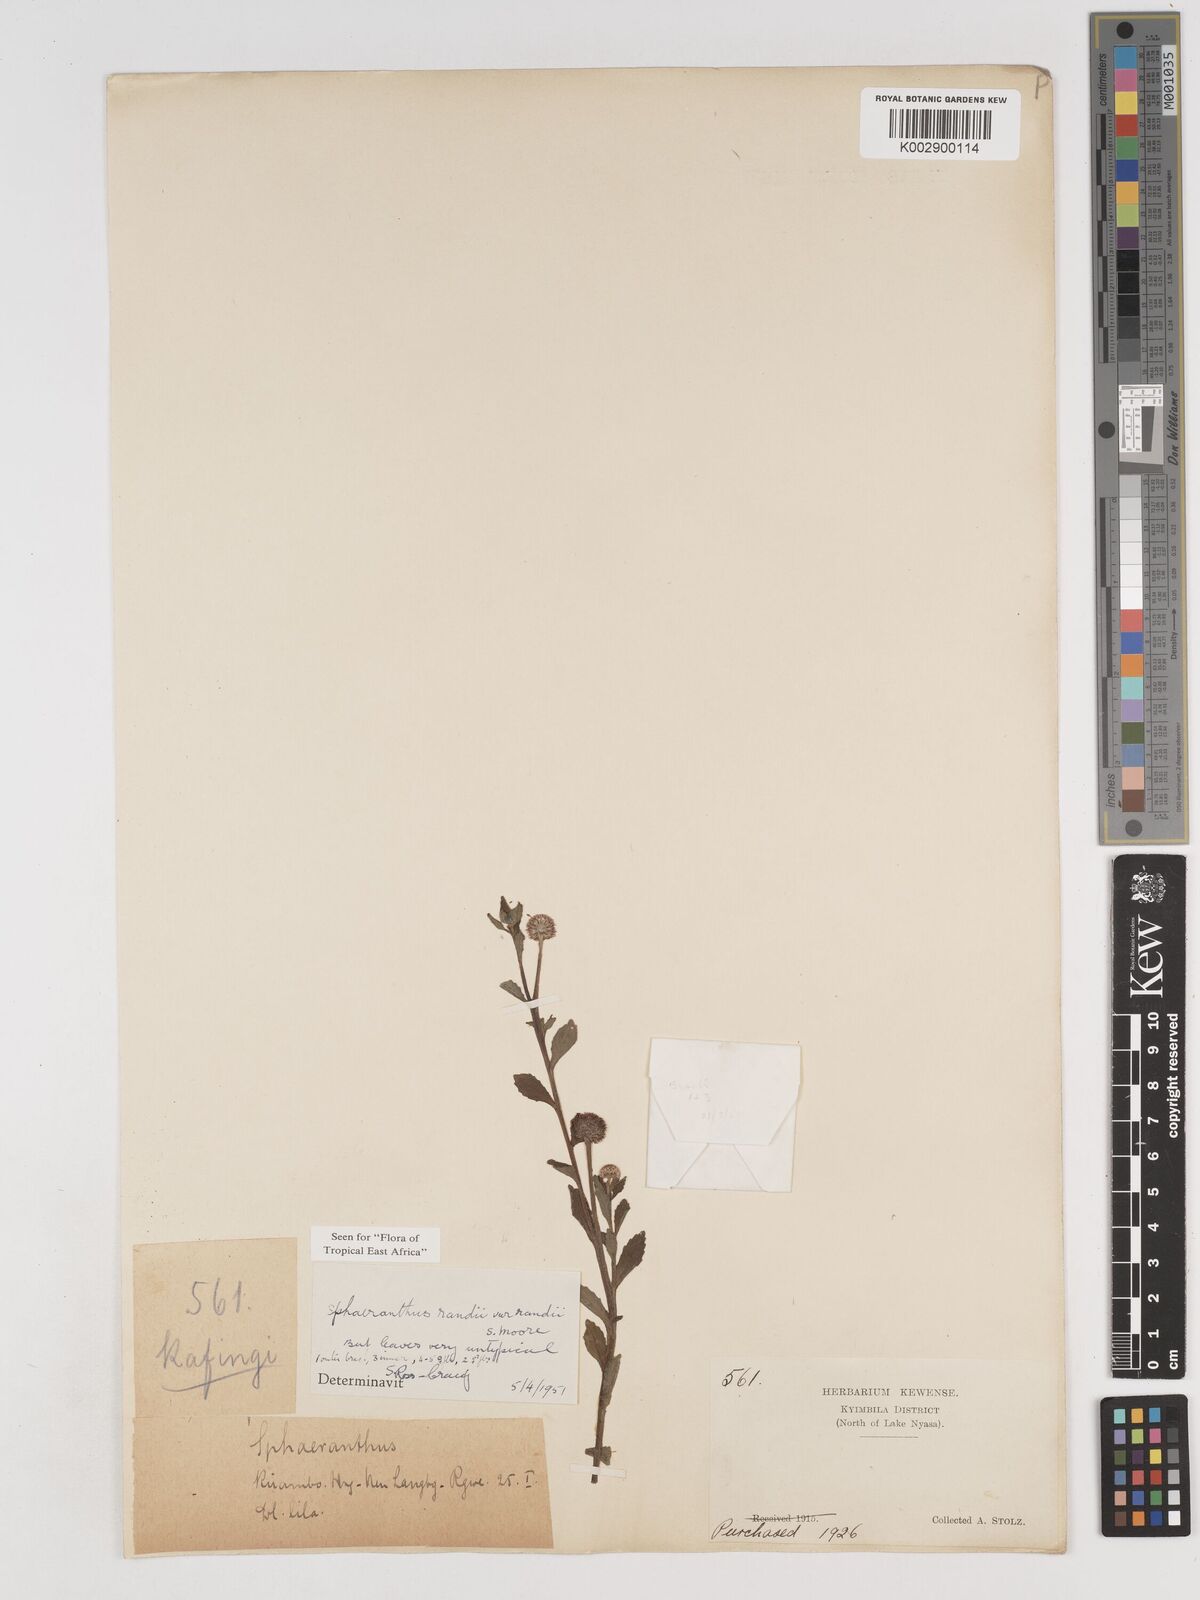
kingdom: Plantae
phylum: Tracheophyta
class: Magnoliopsida
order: Asterales
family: Asteraceae
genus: Sphaeranthus
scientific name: Sphaeranthus randii
